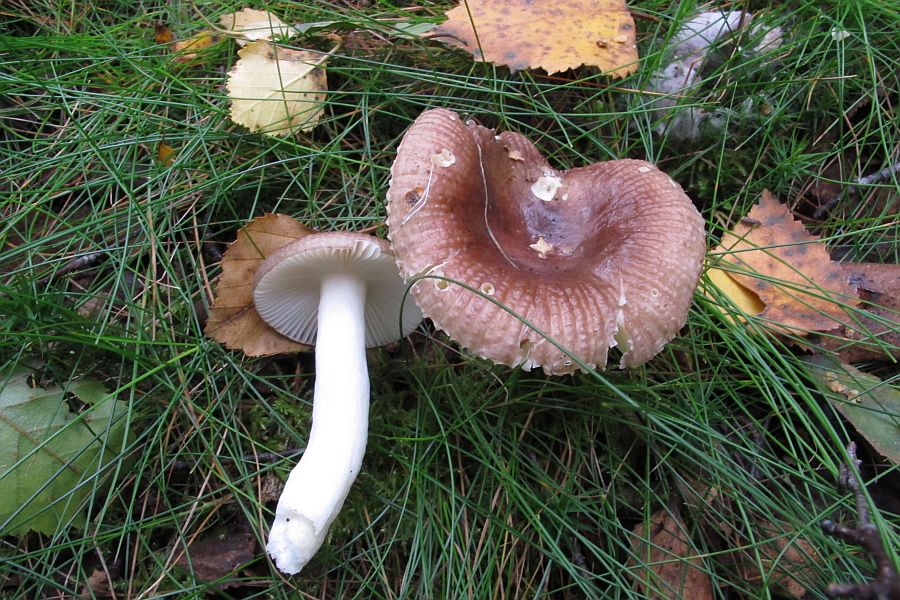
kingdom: Fungi
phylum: Basidiomycota
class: Agaricomycetes
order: Russulales
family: Russulaceae
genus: Russula
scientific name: Russula nitida
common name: året skørhat
